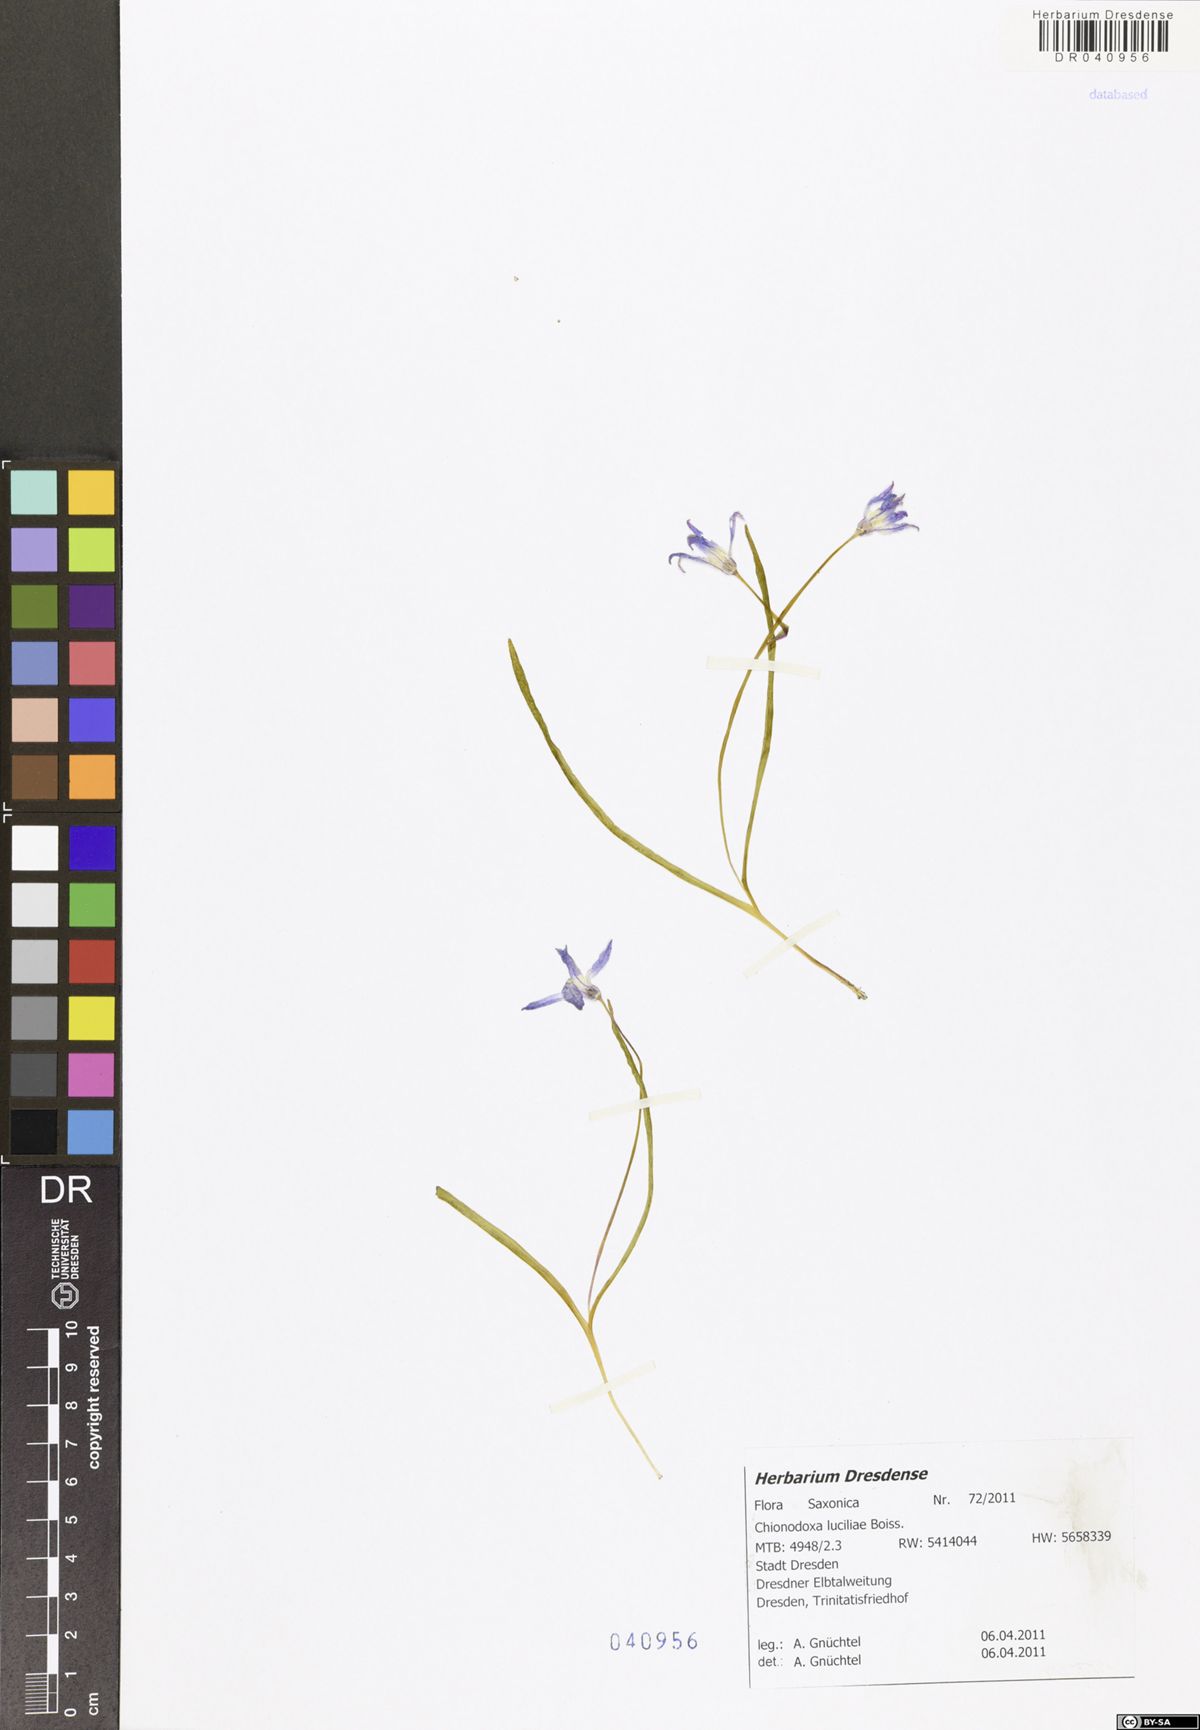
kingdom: Plantae
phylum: Tracheophyta
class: Liliopsida
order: Asparagales
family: Asparagaceae
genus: Scilla
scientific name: Scilla luciliae
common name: Boissier's glory-of-the-snow
